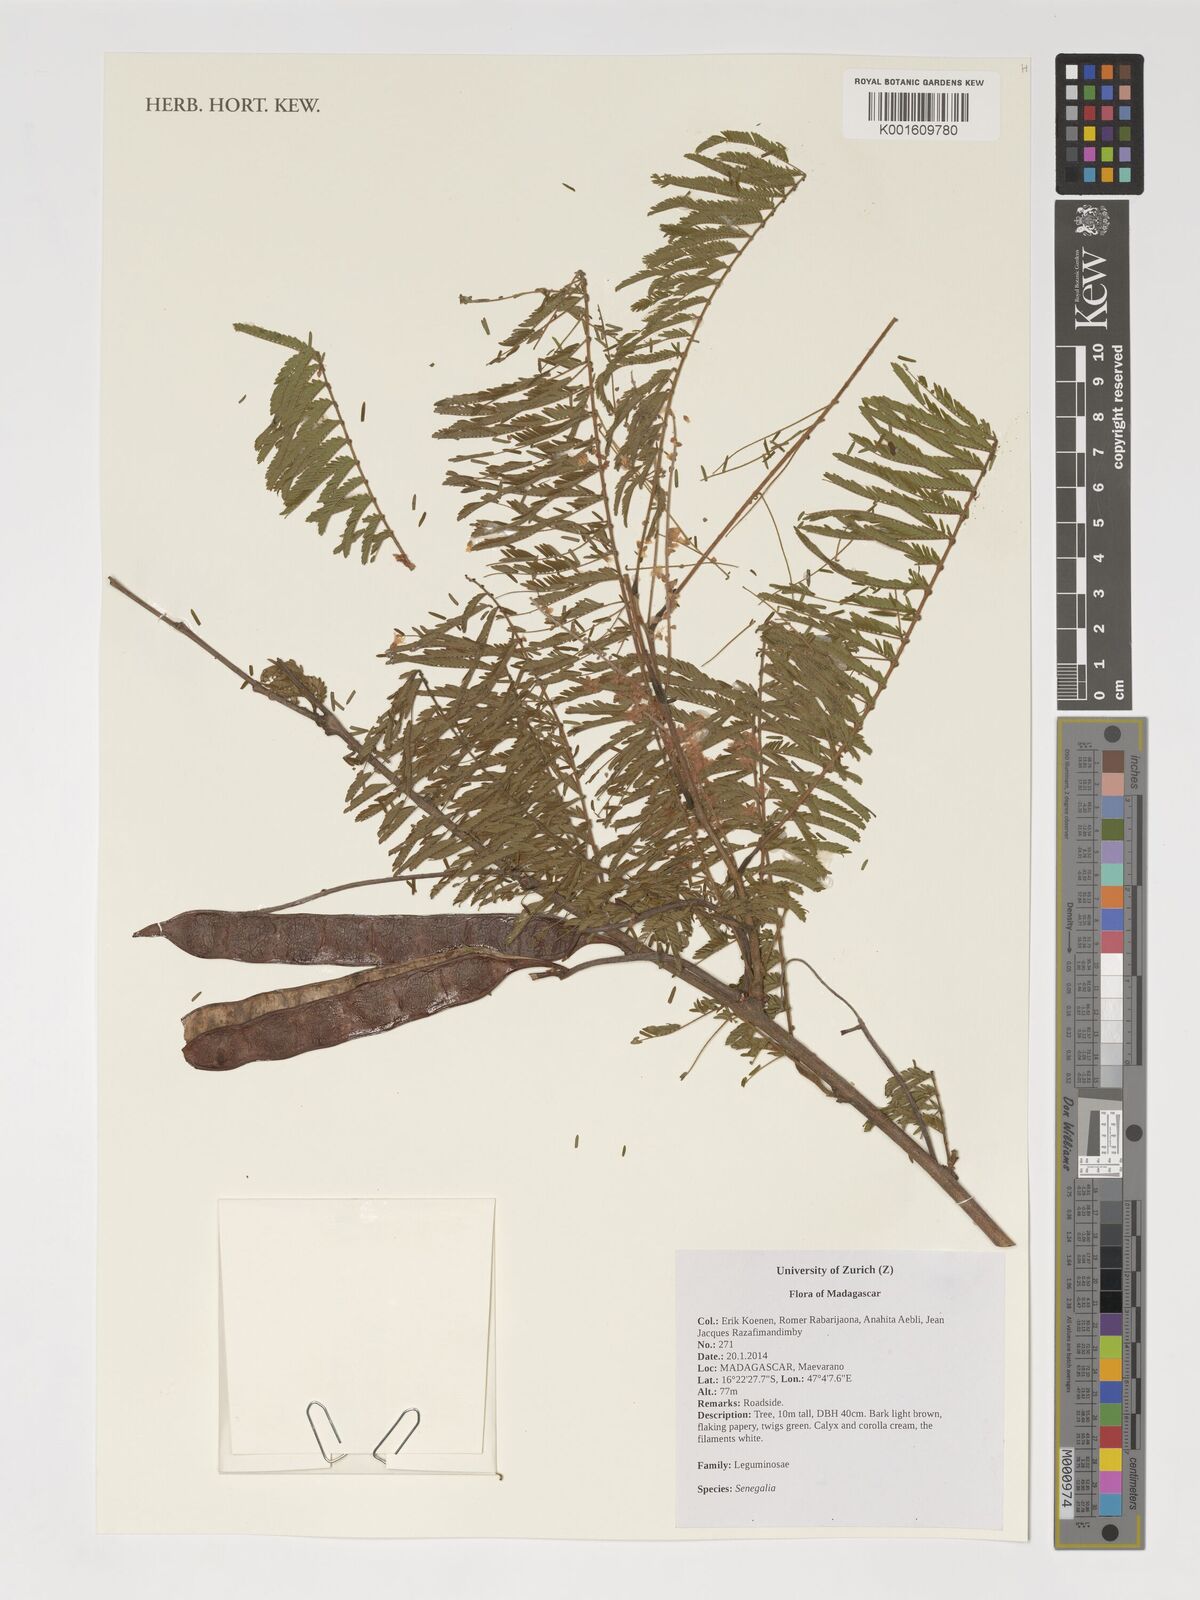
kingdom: Plantae
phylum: Tracheophyta
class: Magnoliopsida
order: Fabales
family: Fabaceae
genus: Senegalia
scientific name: Senegalia
